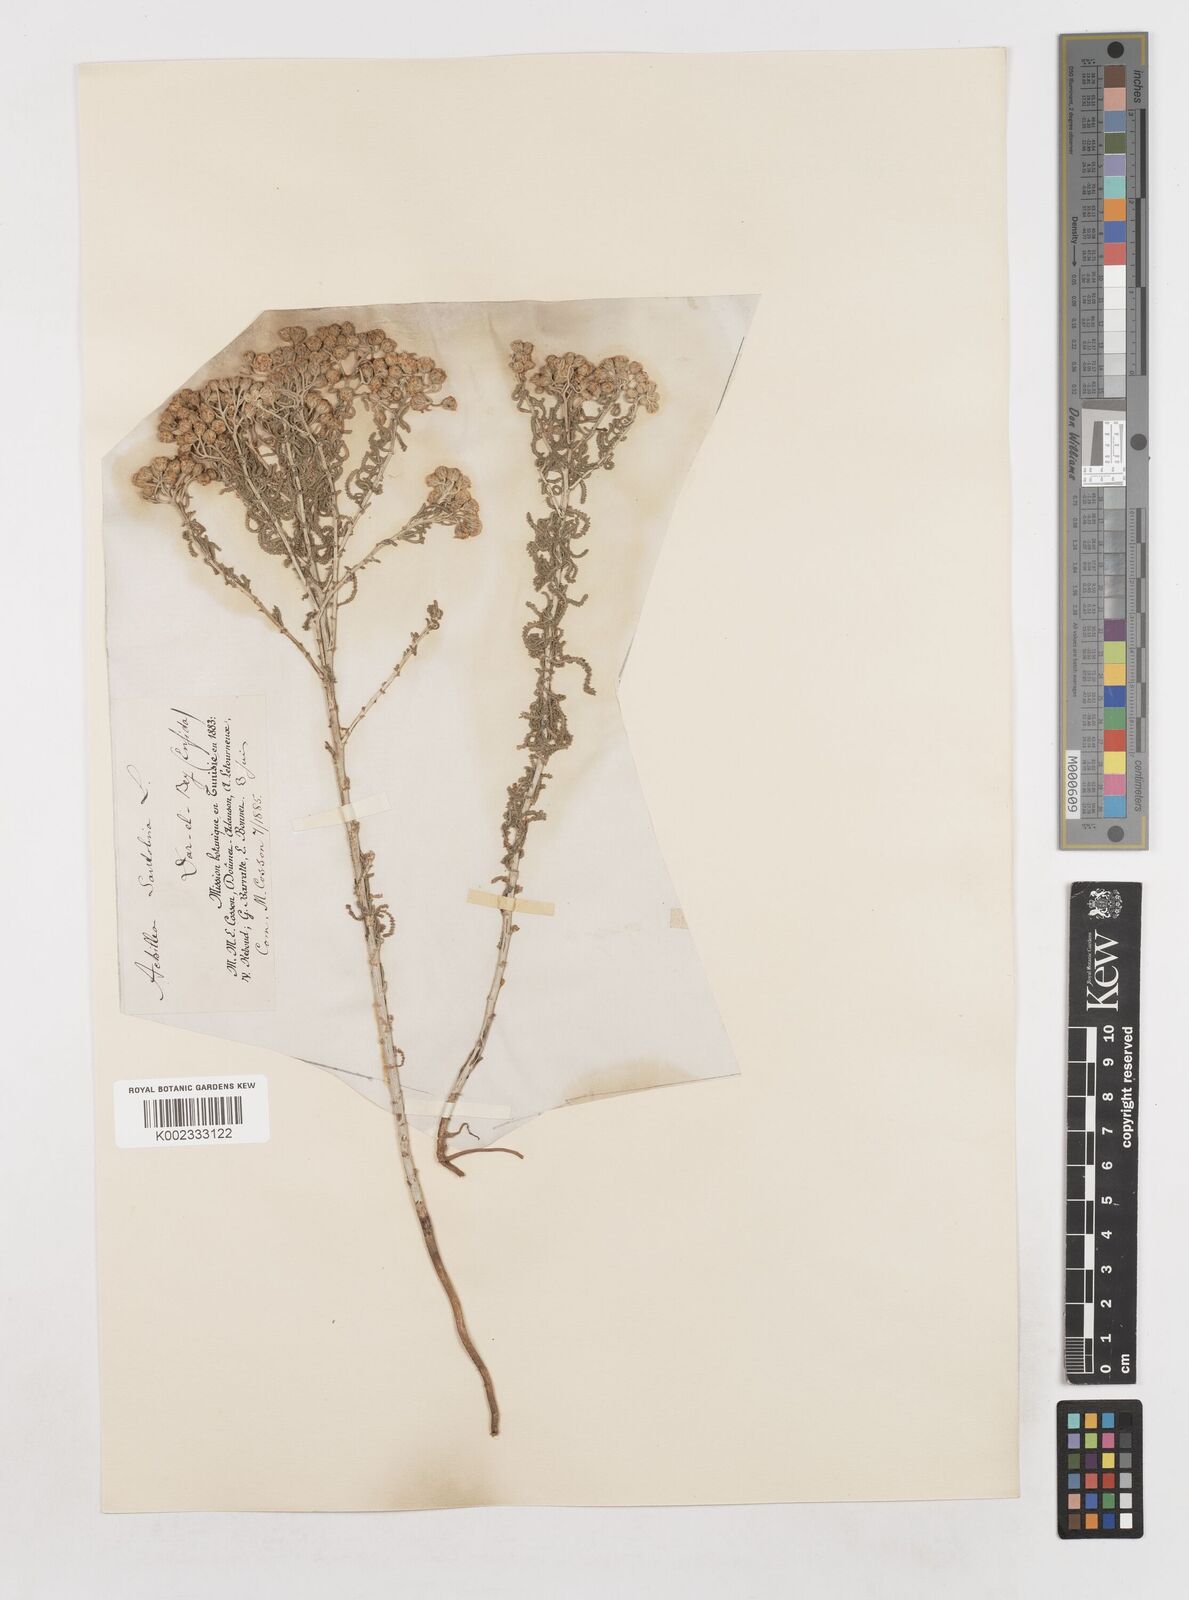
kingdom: Plantae
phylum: Tracheophyta
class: Magnoliopsida
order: Asterales
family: Asteraceae
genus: Achillea
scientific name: Achillea tenuifolia
